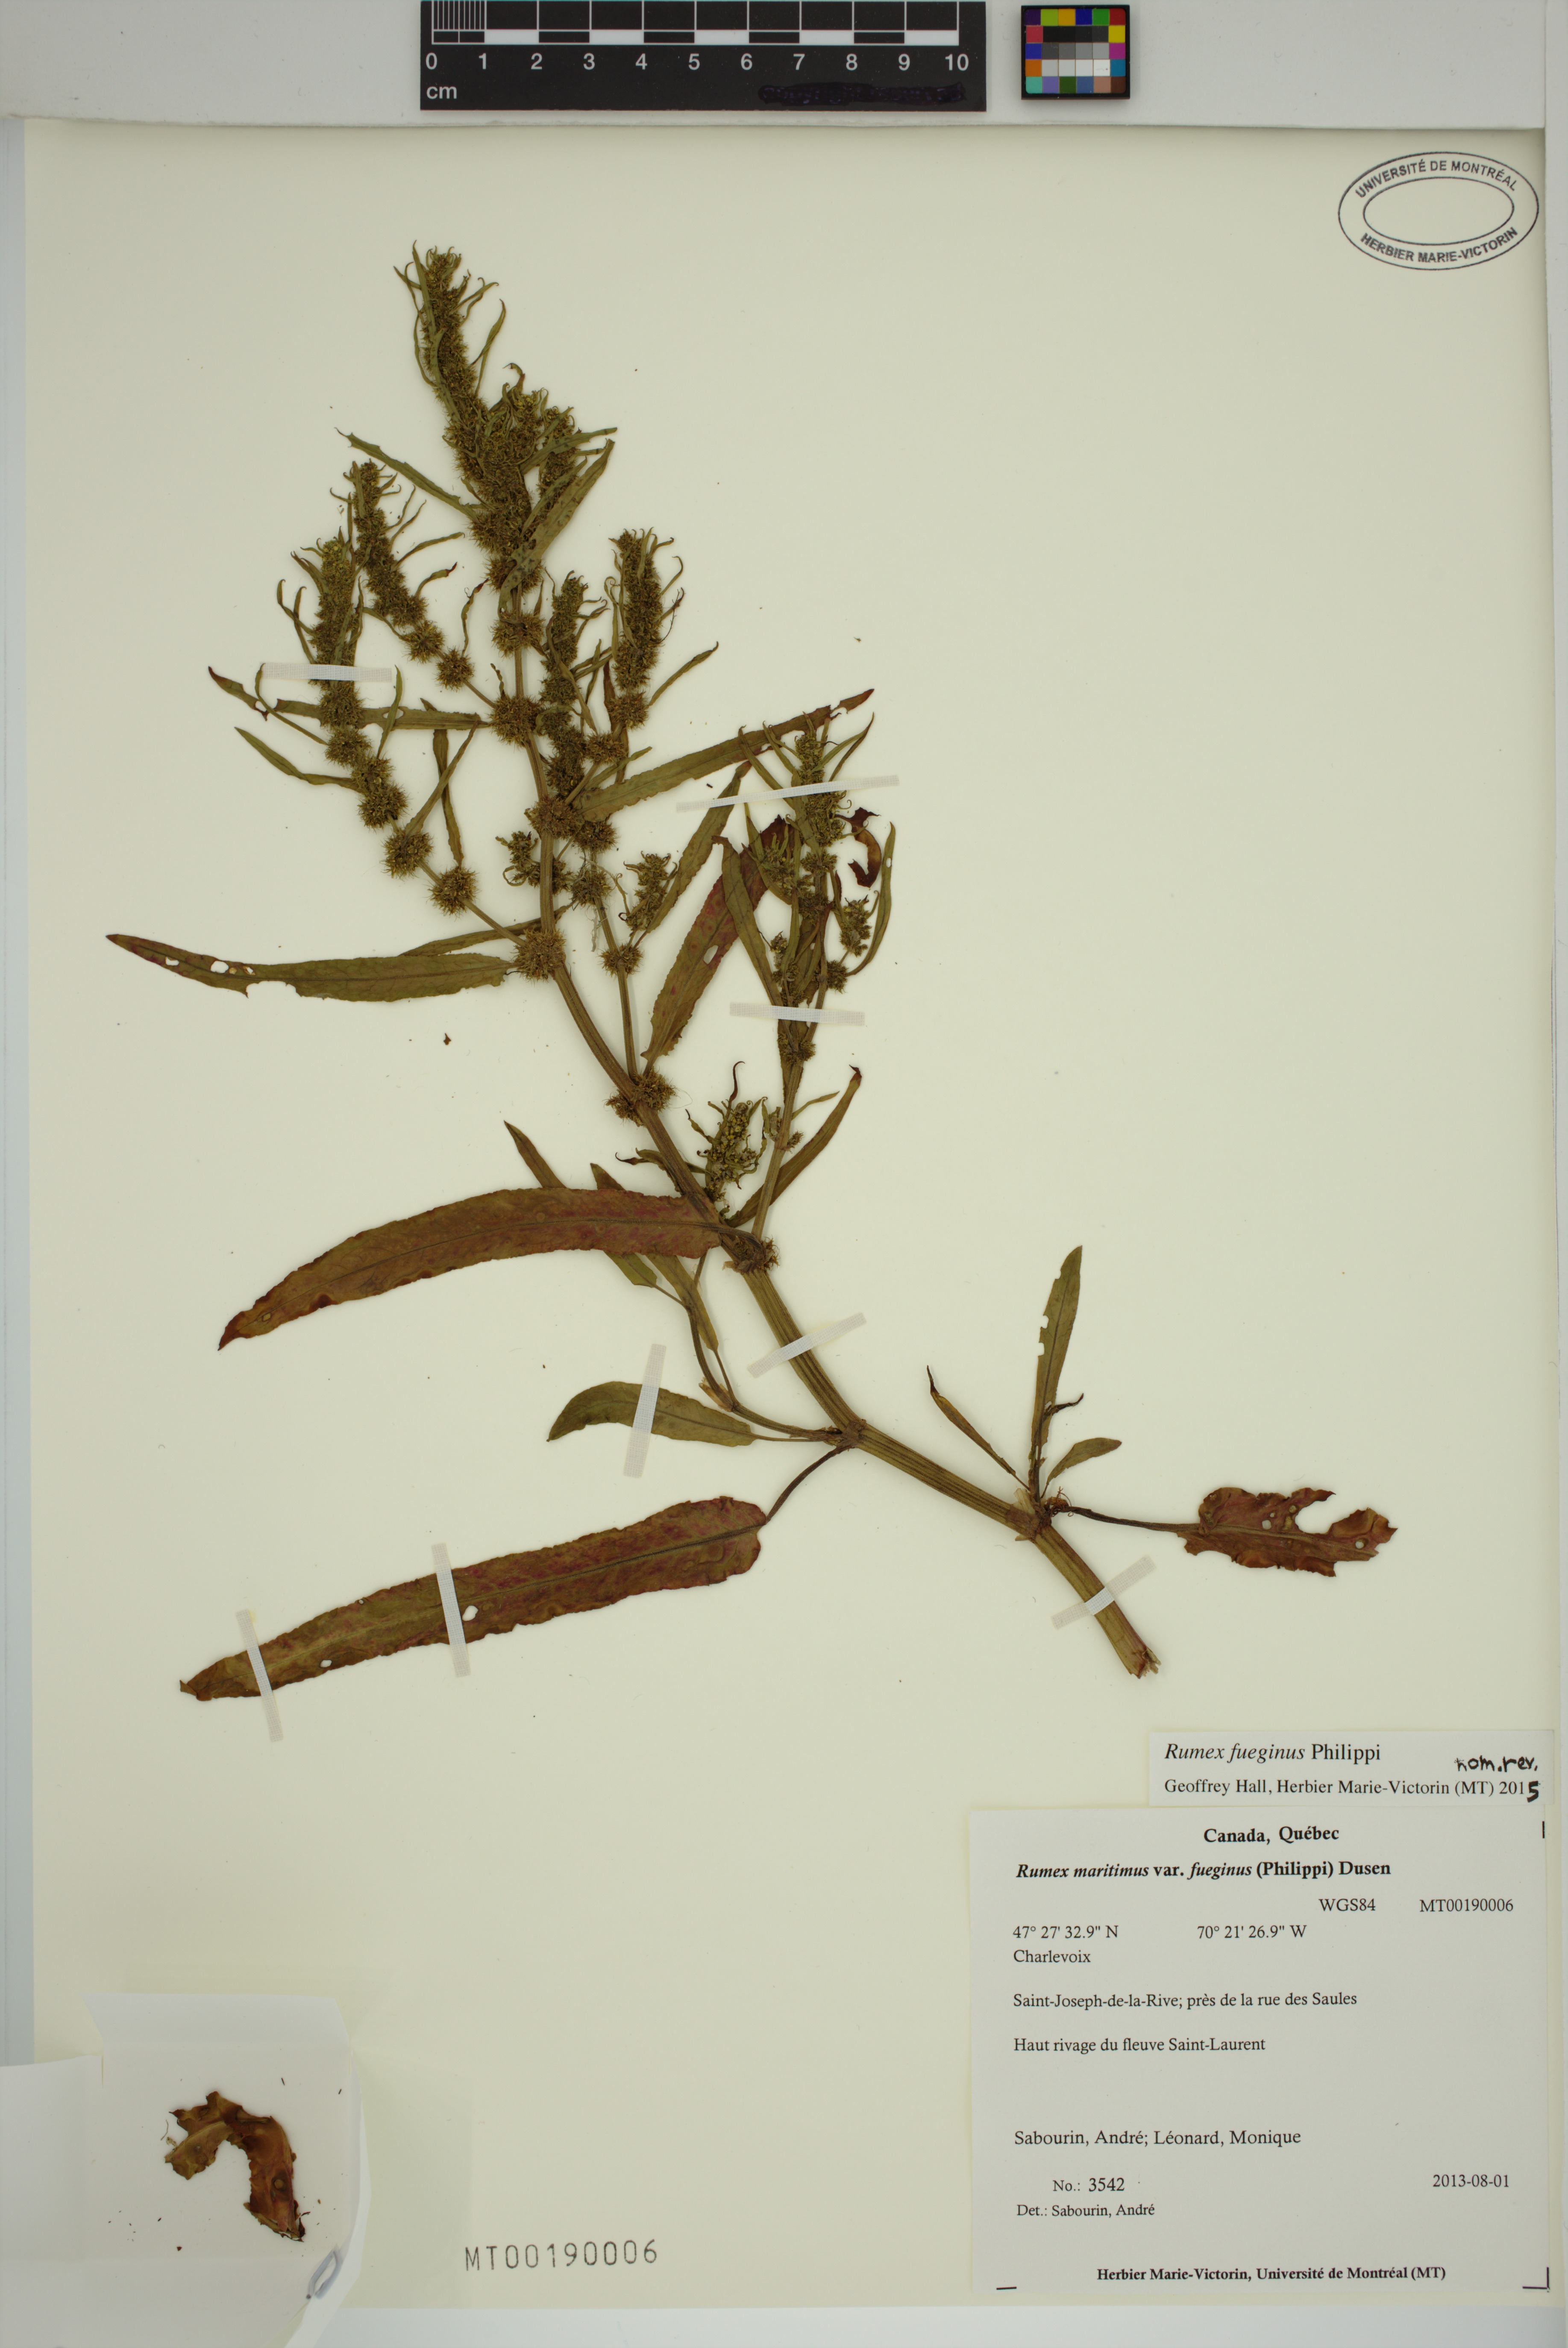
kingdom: Plantae
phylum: Tracheophyta
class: Magnoliopsida
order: Caryophyllales
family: Polygonaceae
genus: Rumex
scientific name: Rumex fueginus
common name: American golden dock
